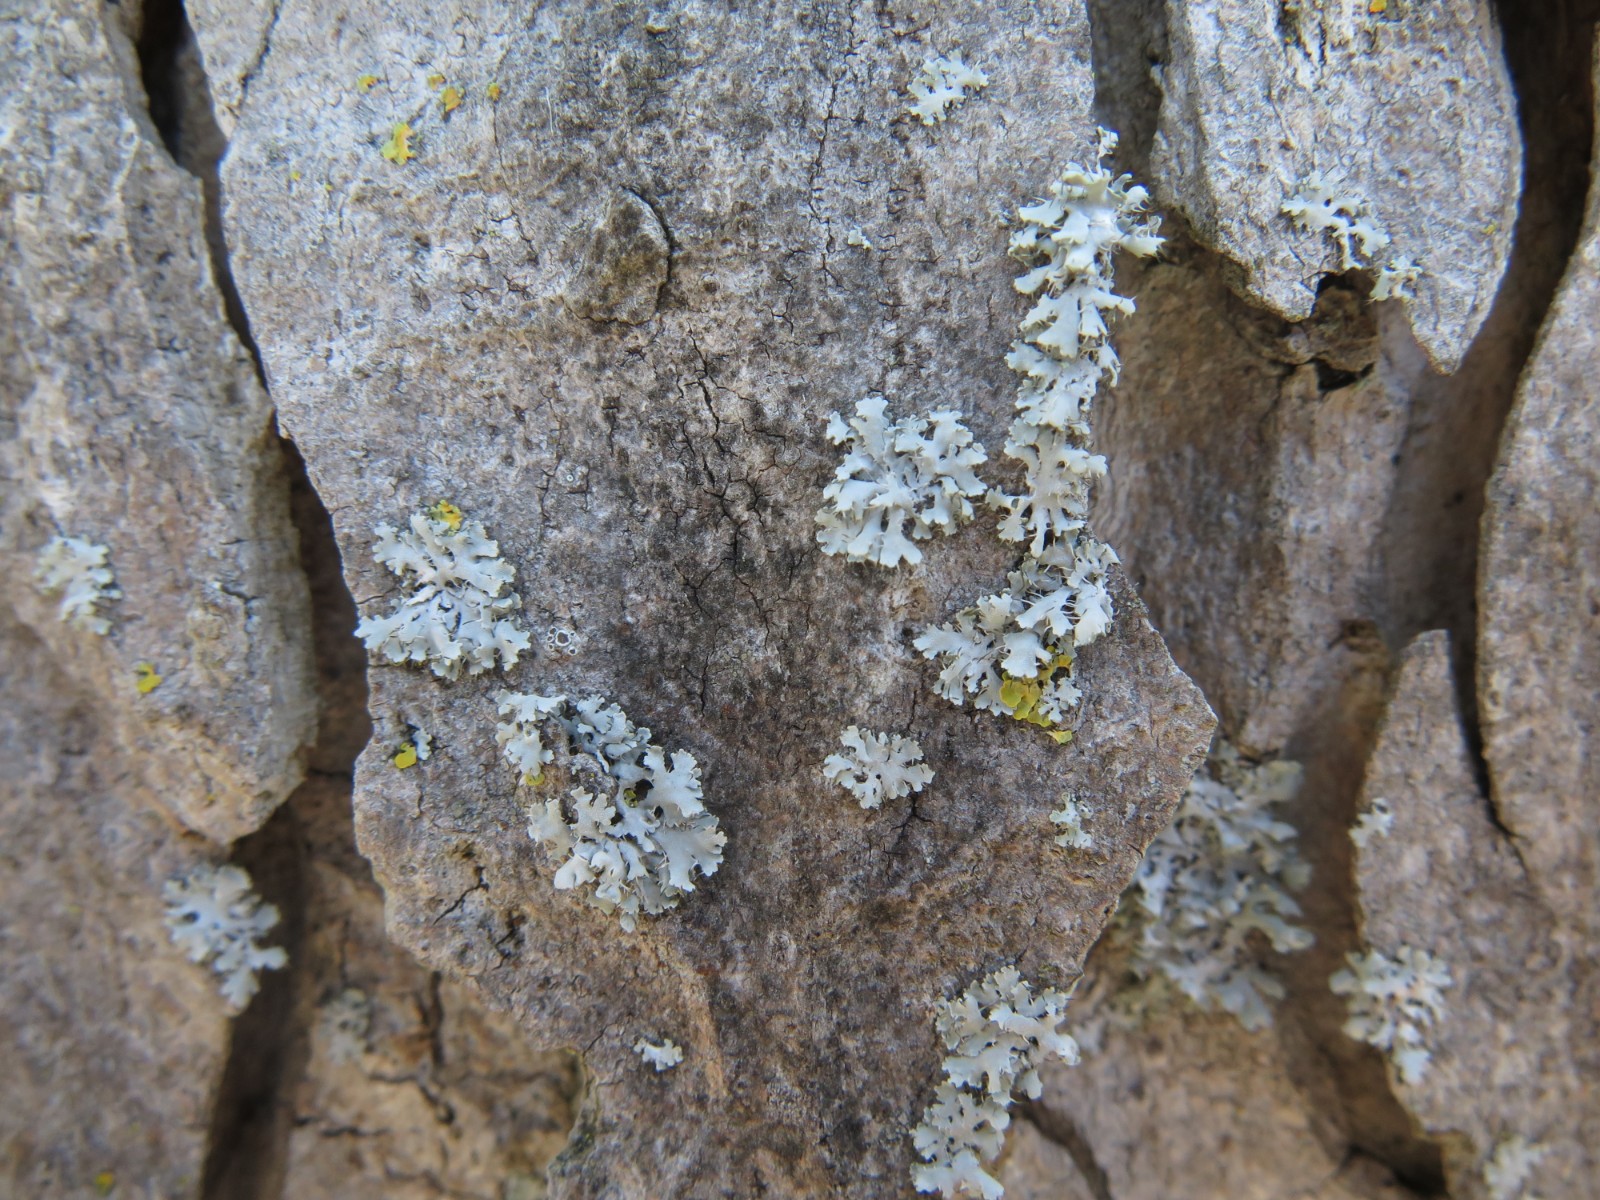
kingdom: Fungi
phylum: Ascomycota
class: Lecanoromycetes
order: Caliciales
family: Physciaceae
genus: Physcia
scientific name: Physcia tenella
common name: spæd rosetlav
